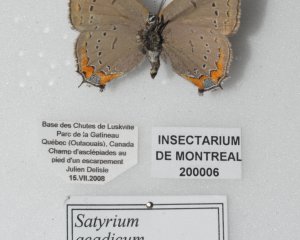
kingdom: Animalia
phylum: Arthropoda
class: Insecta
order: Lepidoptera
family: Lycaenidae
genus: Strymon
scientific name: Strymon acadica
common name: Acadian Hairstreak
